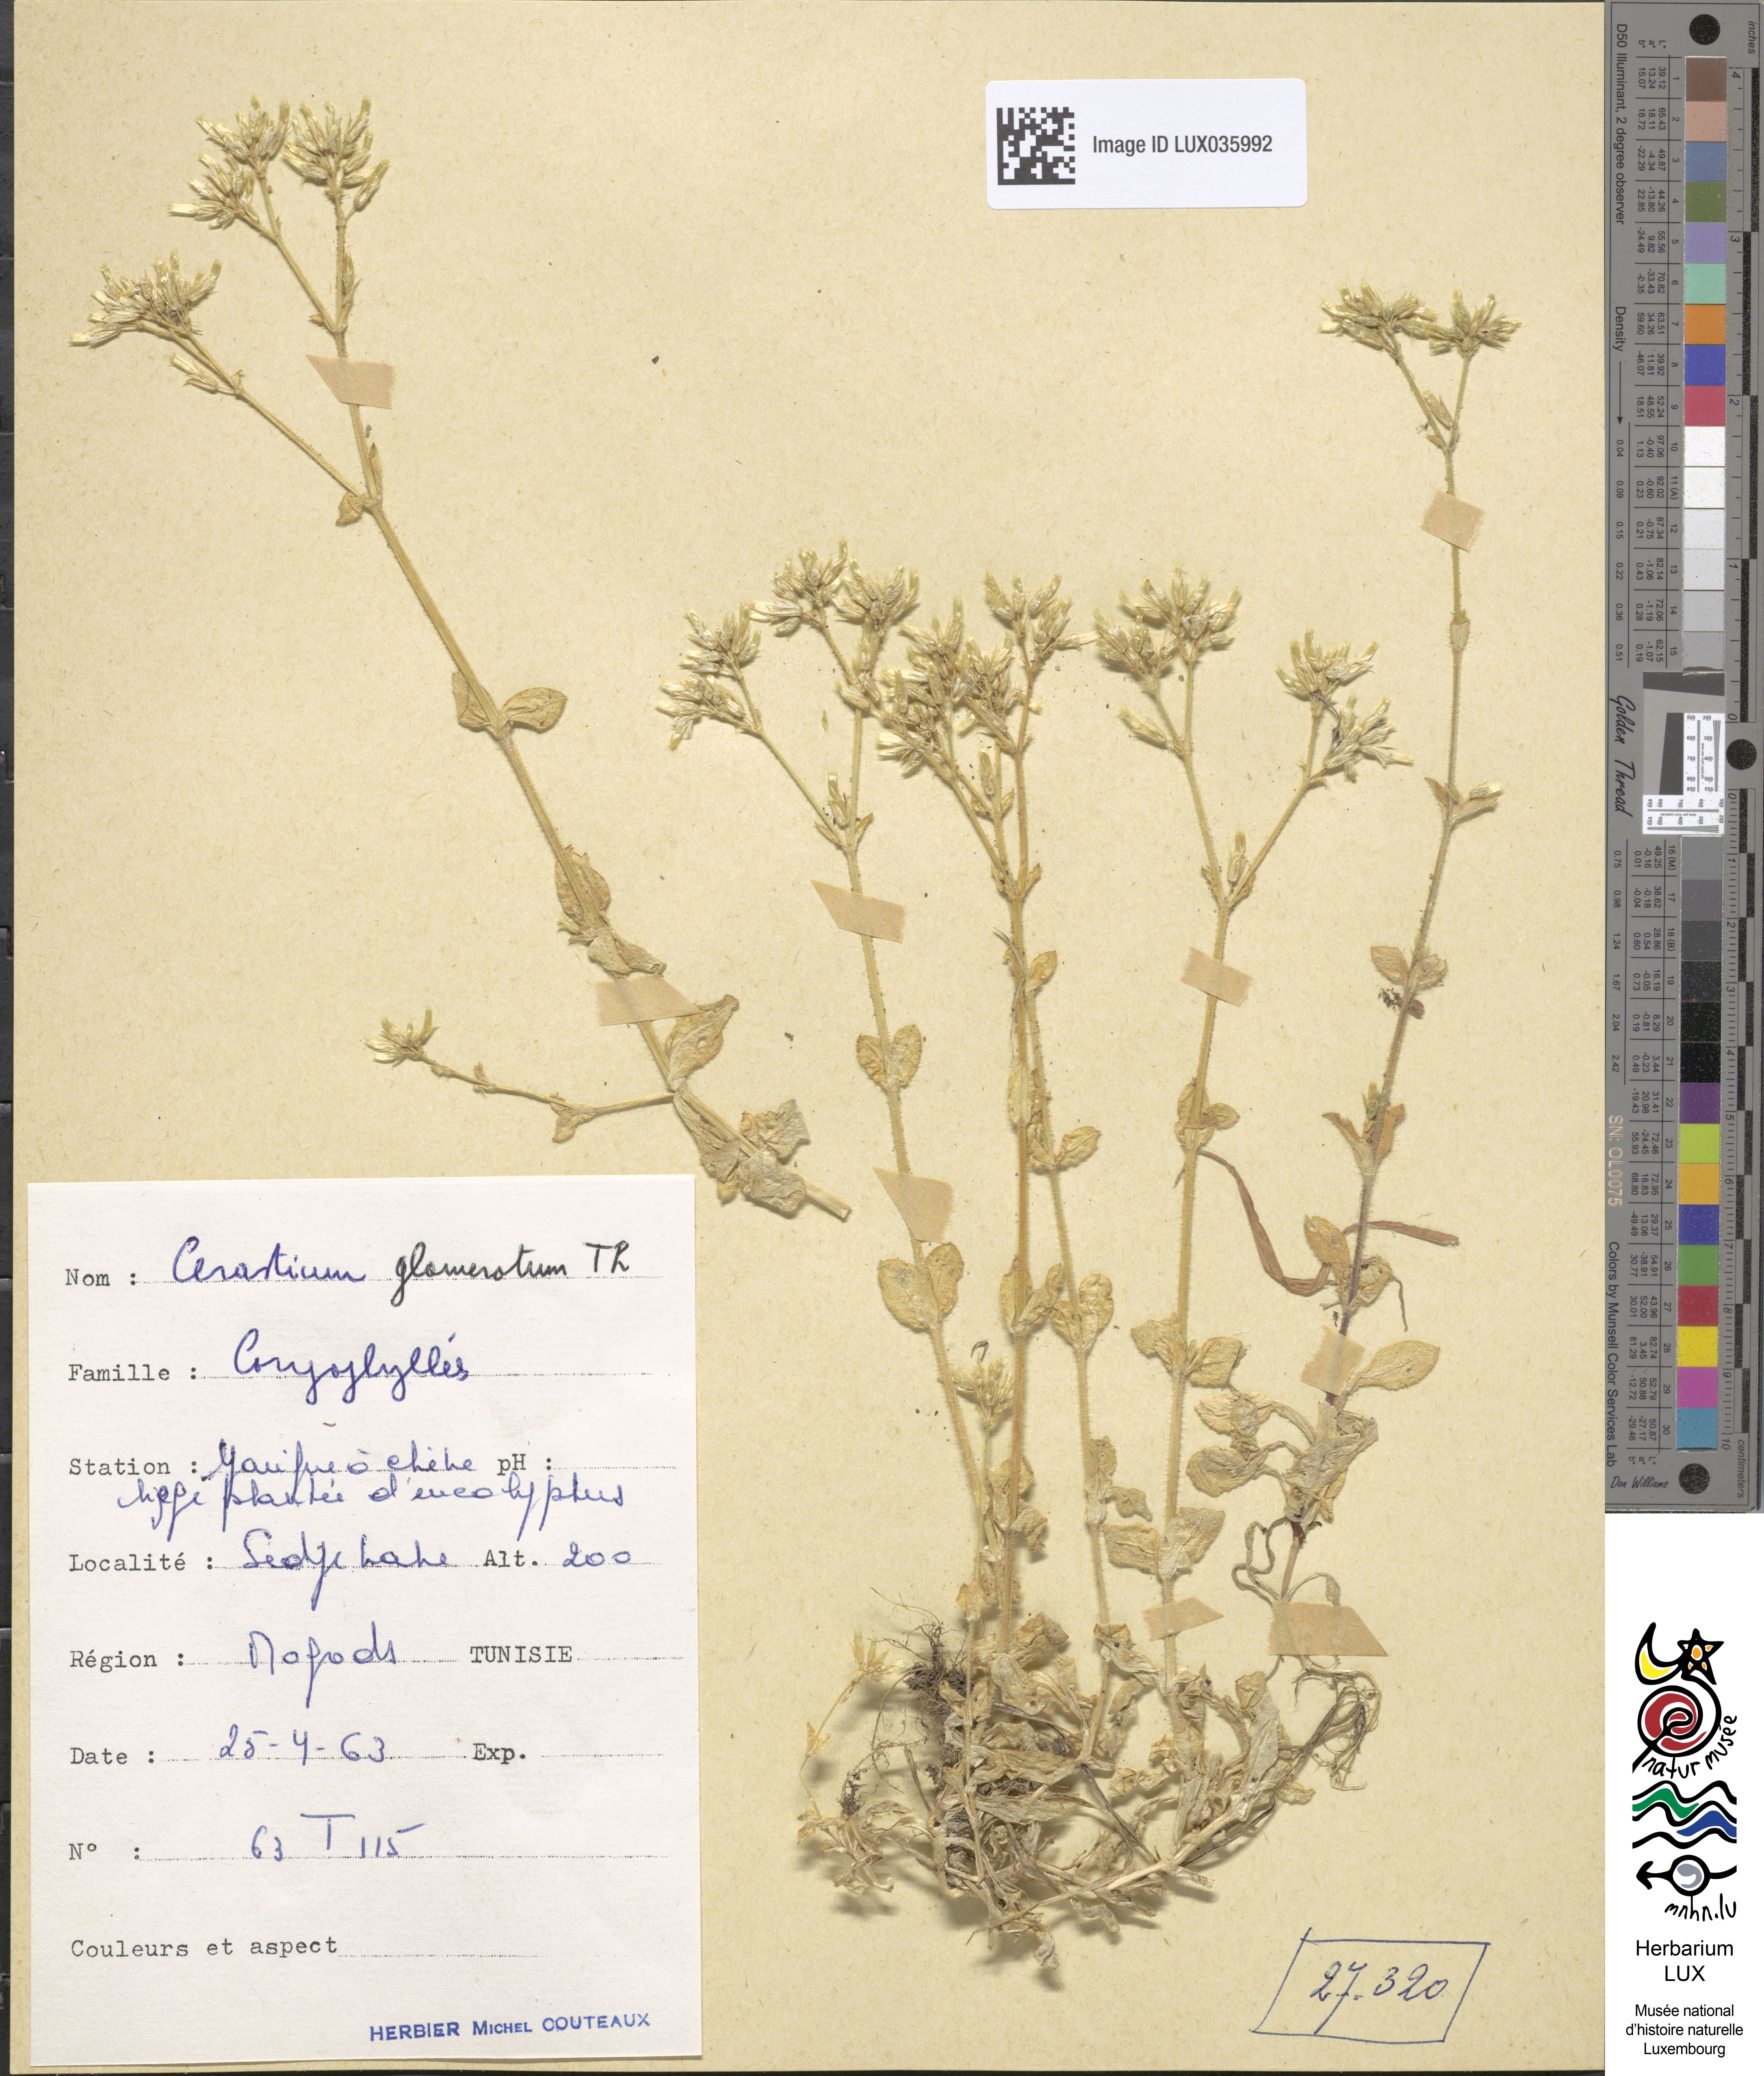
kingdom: Plantae
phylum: Tracheophyta
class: Magnoliopsida
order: Caryophyllales
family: Caryophyllaceae
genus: Cerastium
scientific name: Cerastium glomeratum
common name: Sticky chickweed
